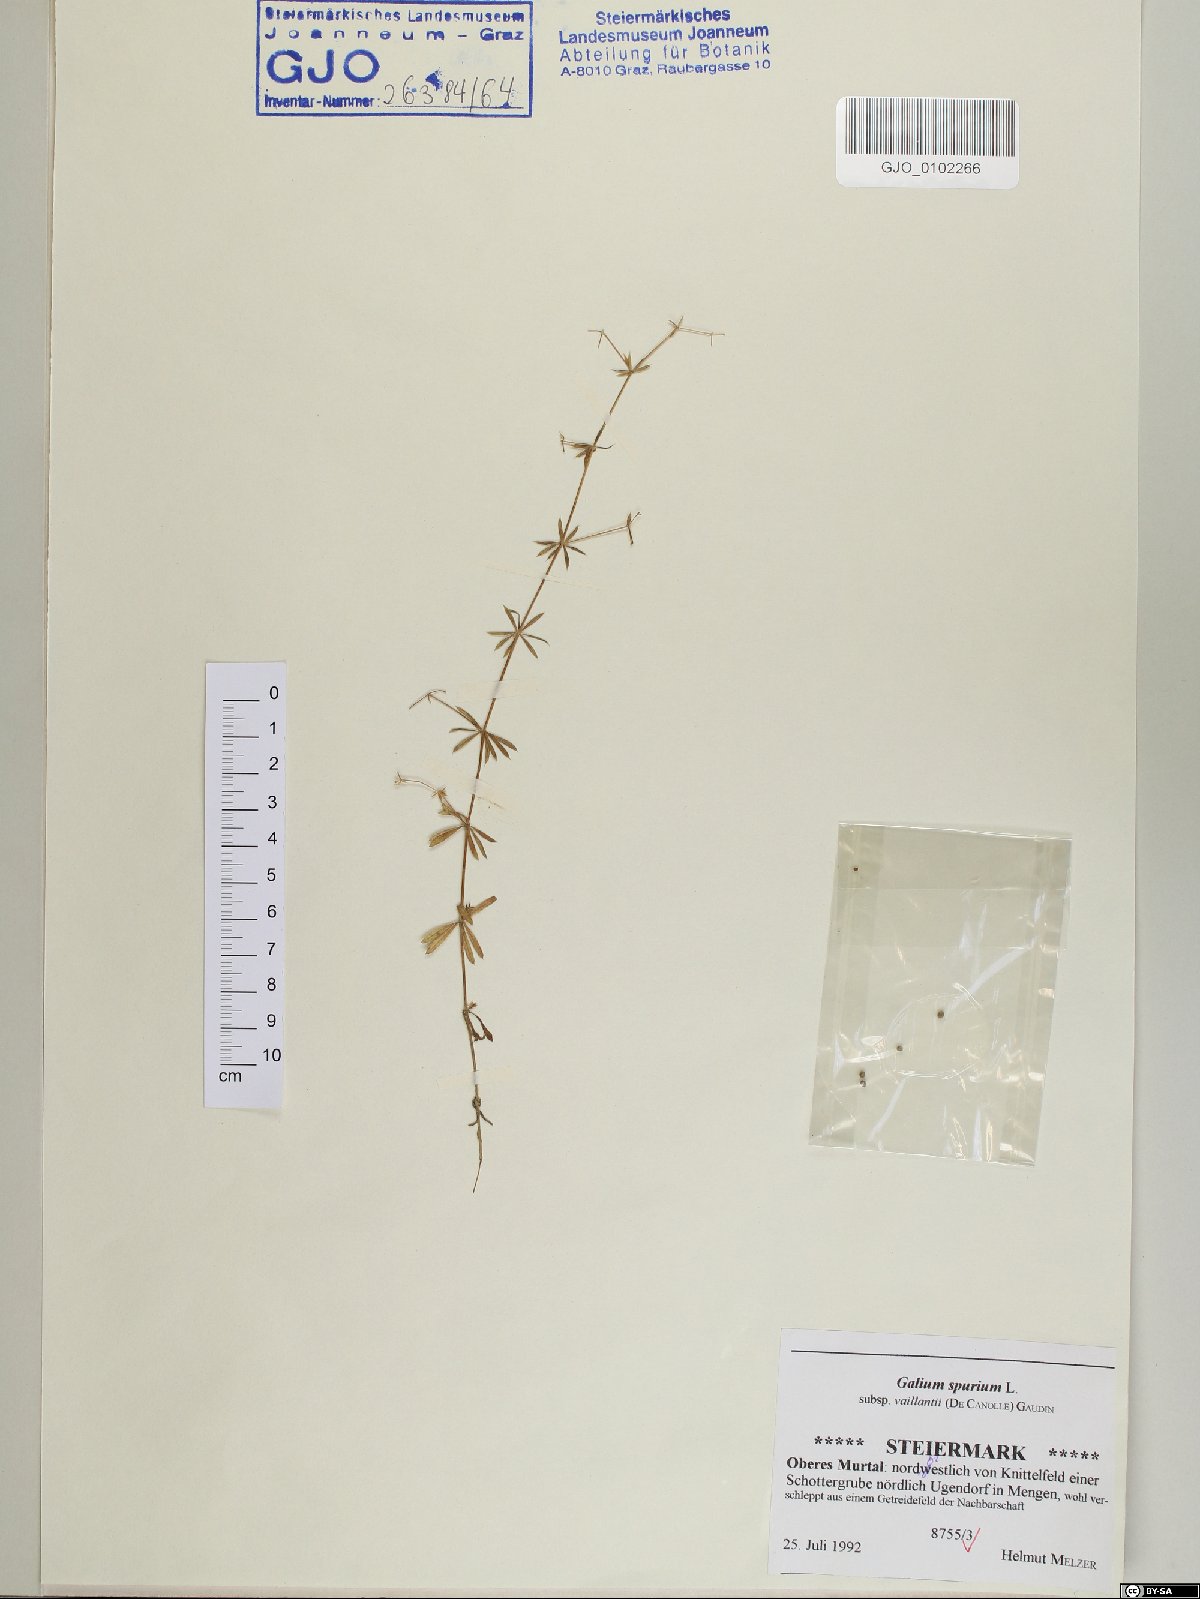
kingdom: Plantae
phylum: Tracheophyta
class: Magnoliopsida
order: Gentianales
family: Rubiaceae
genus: Galium
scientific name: Galium spurium
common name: False cleavers
